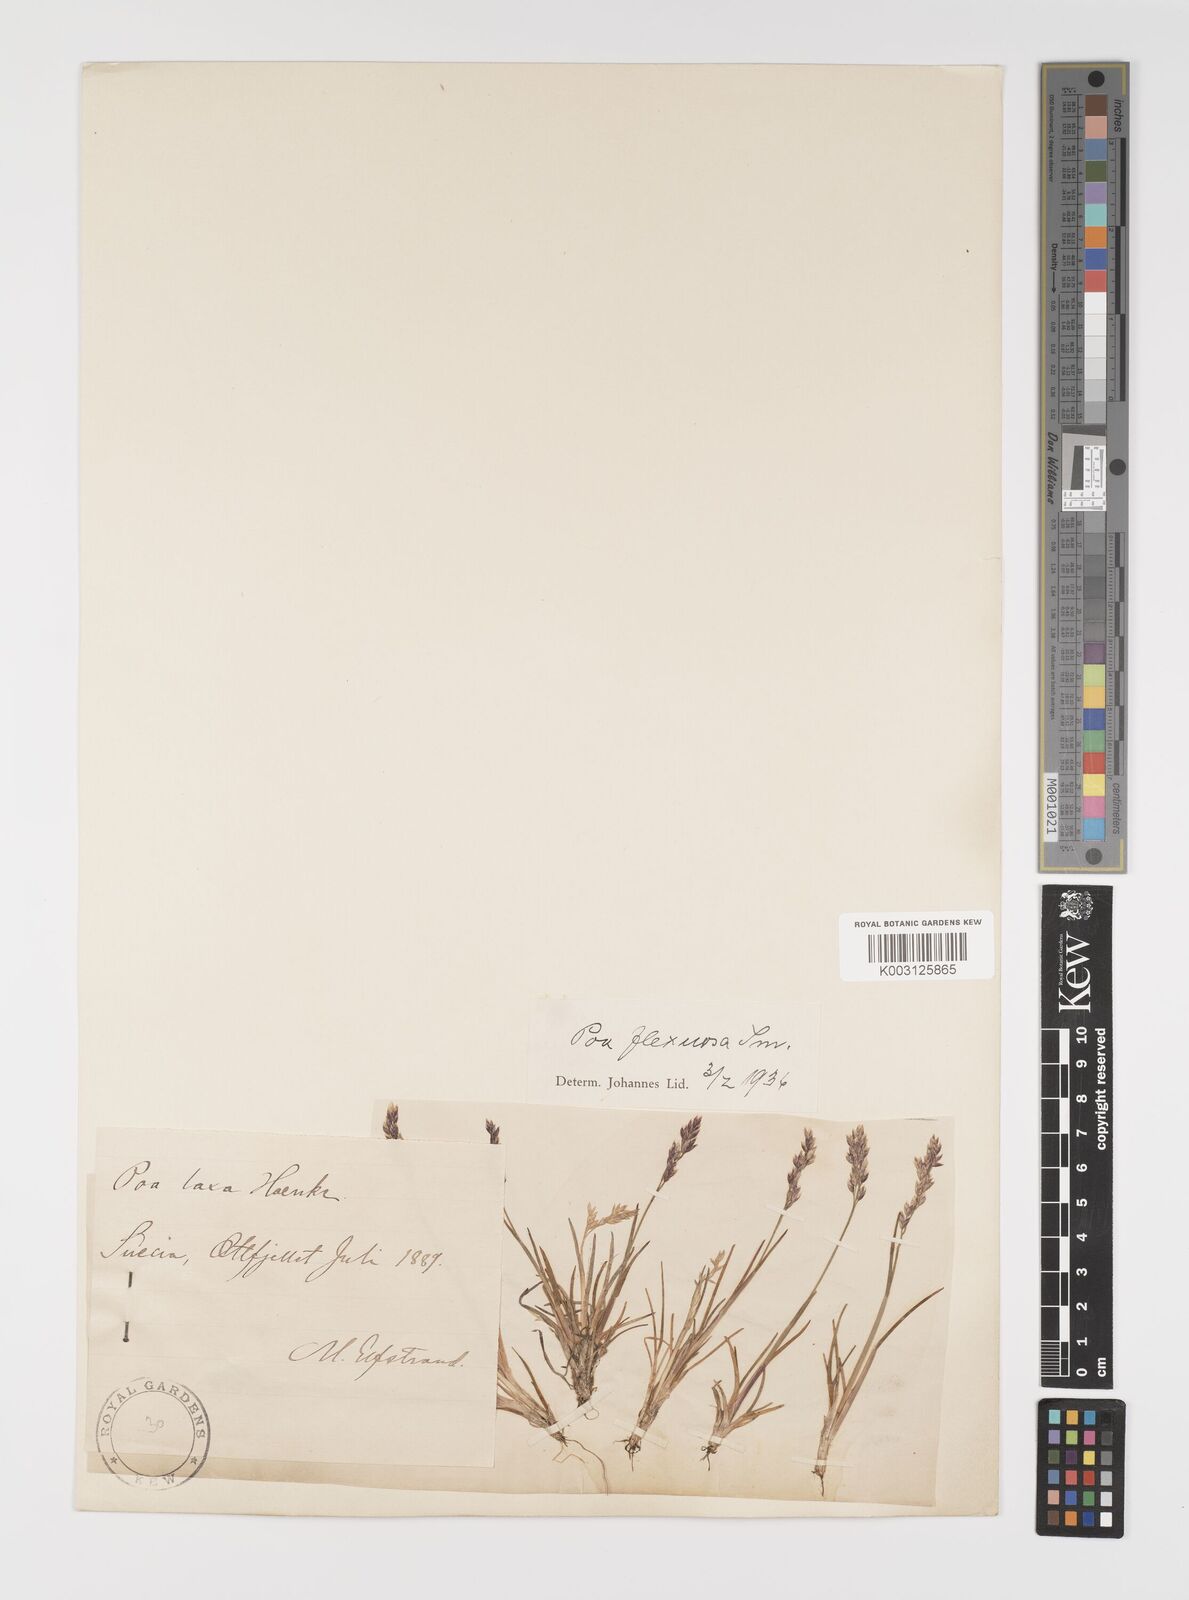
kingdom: Plantae
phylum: Tracheophyta
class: Liliopsida
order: Poales
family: Poaceae
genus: Eragrostis
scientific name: Eragrostis cilianensis
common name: Stinkgrass
